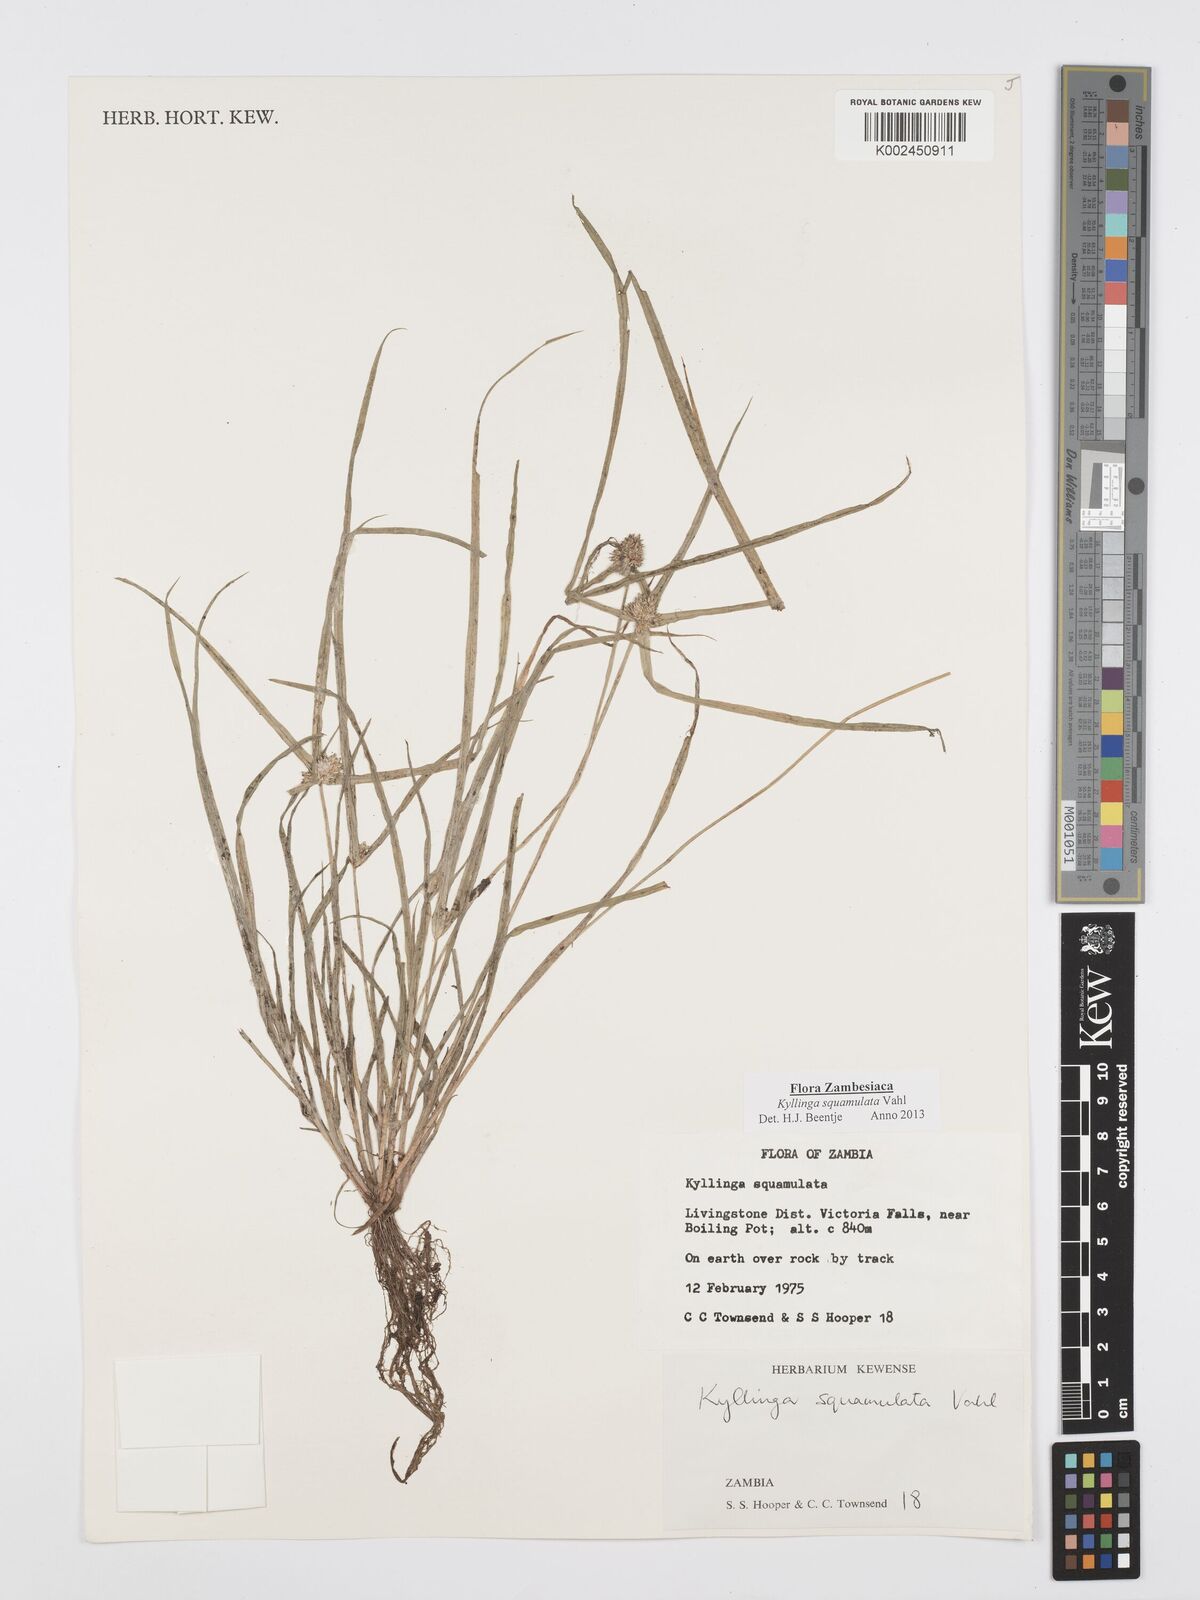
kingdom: Plantae
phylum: Tracheophyta
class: Liliopsida
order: Poales
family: Cyperaceae
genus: Cyperus
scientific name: Cyperus distans
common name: Slender cyperus
